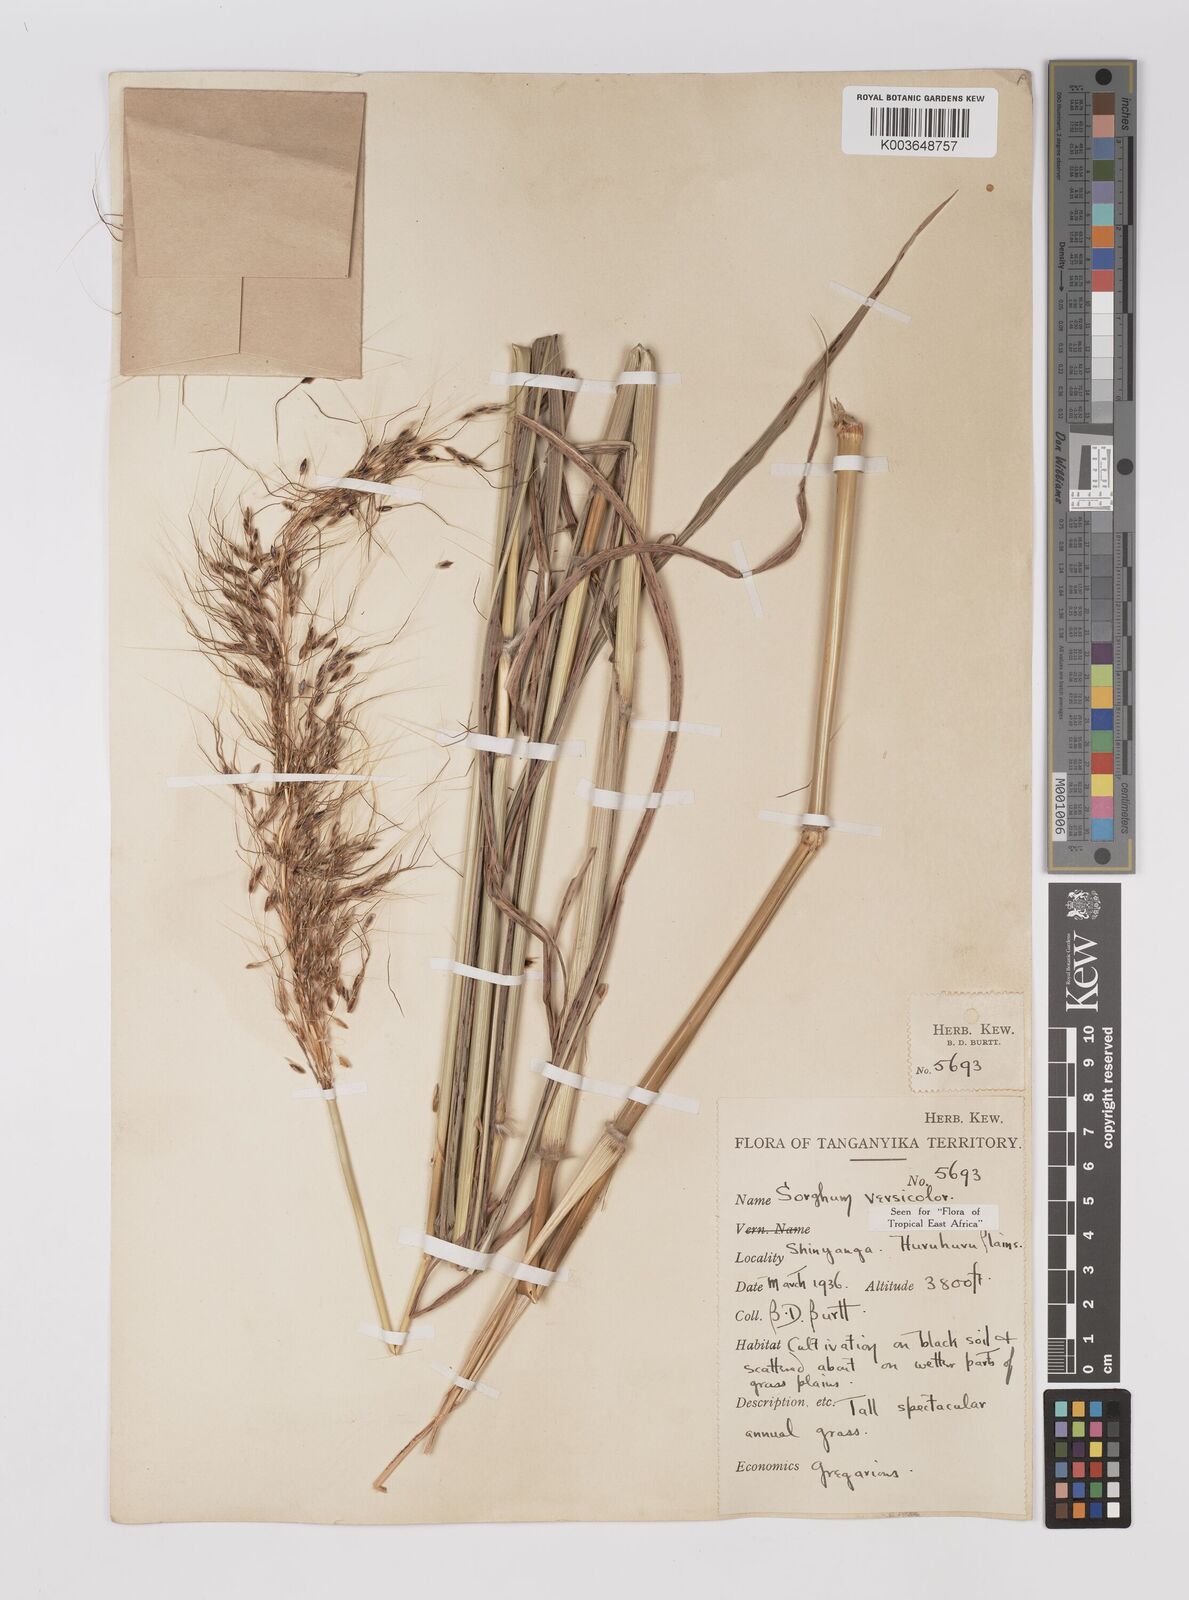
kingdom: Plantae
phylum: Tracheophyta
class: Liliopsida
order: Poales
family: Poaceae
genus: Sarga
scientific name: Sarga versicolor
